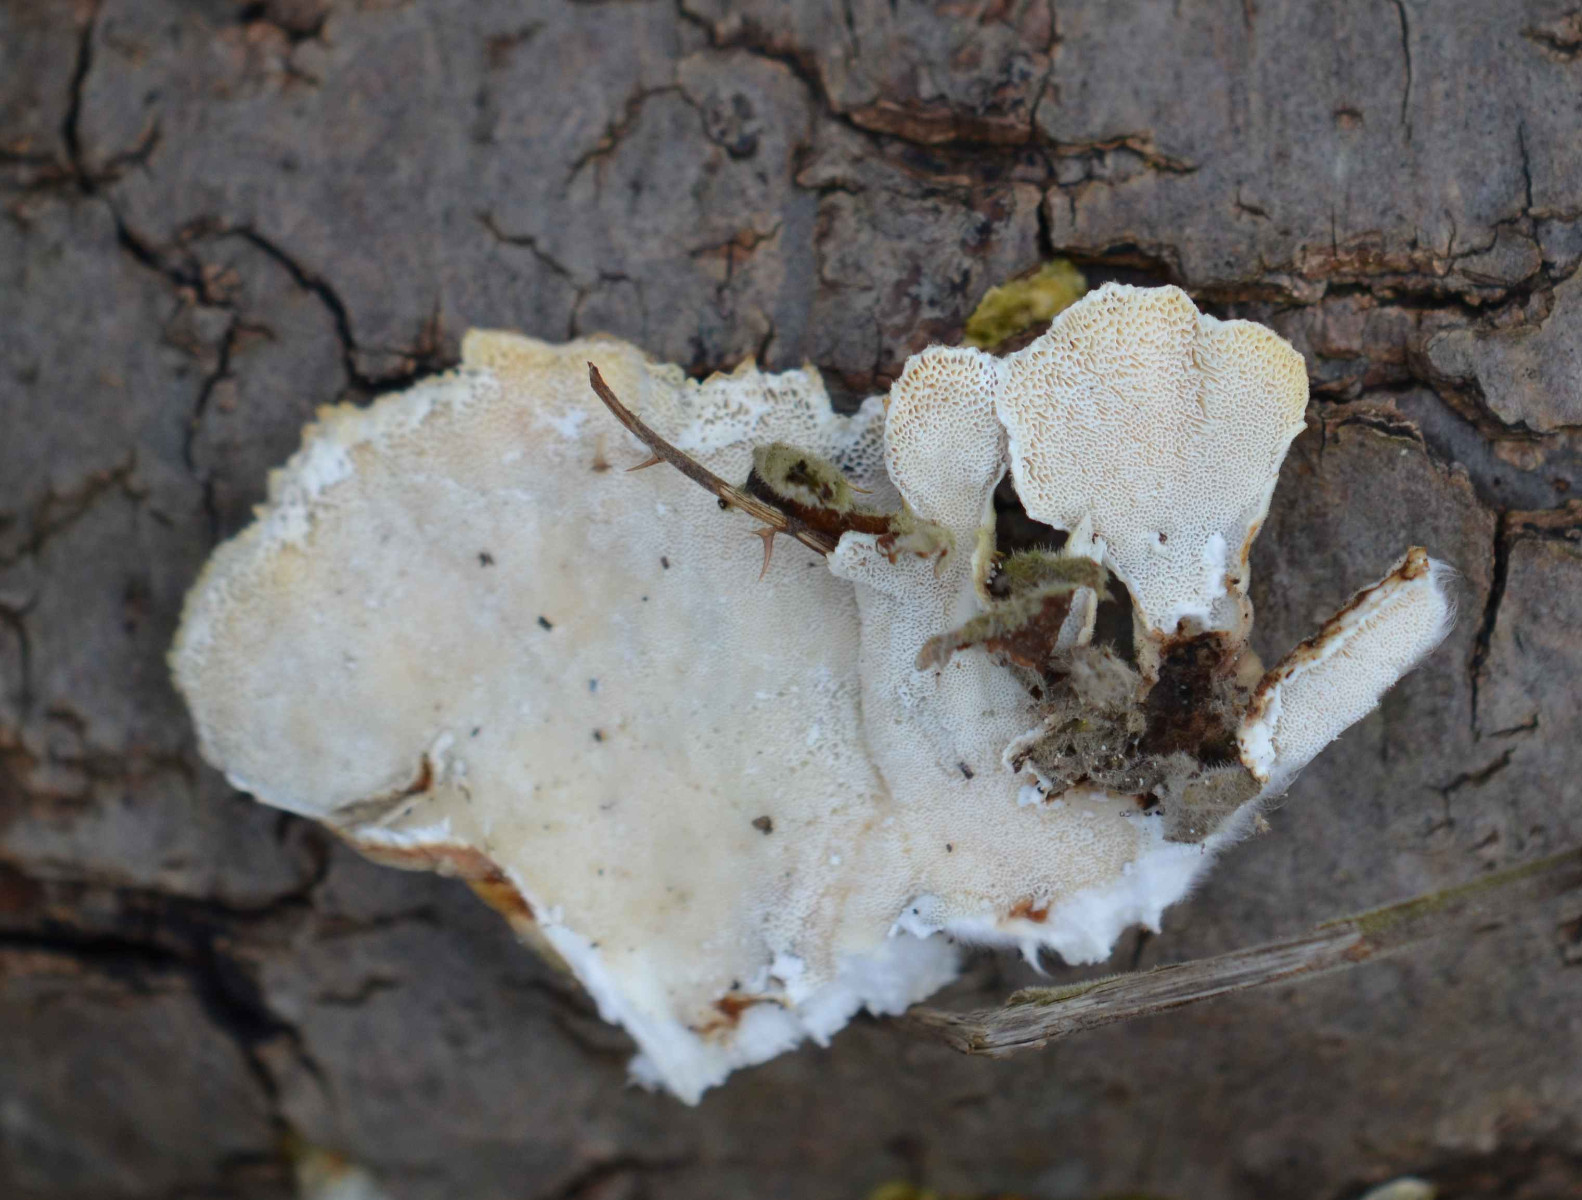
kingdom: Fungi
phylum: Basidiomycota
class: Agaricomycetes
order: Polyporales
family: Polyporaceae
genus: Trametes
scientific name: Trametes versicolor
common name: broget læderporesvamp
